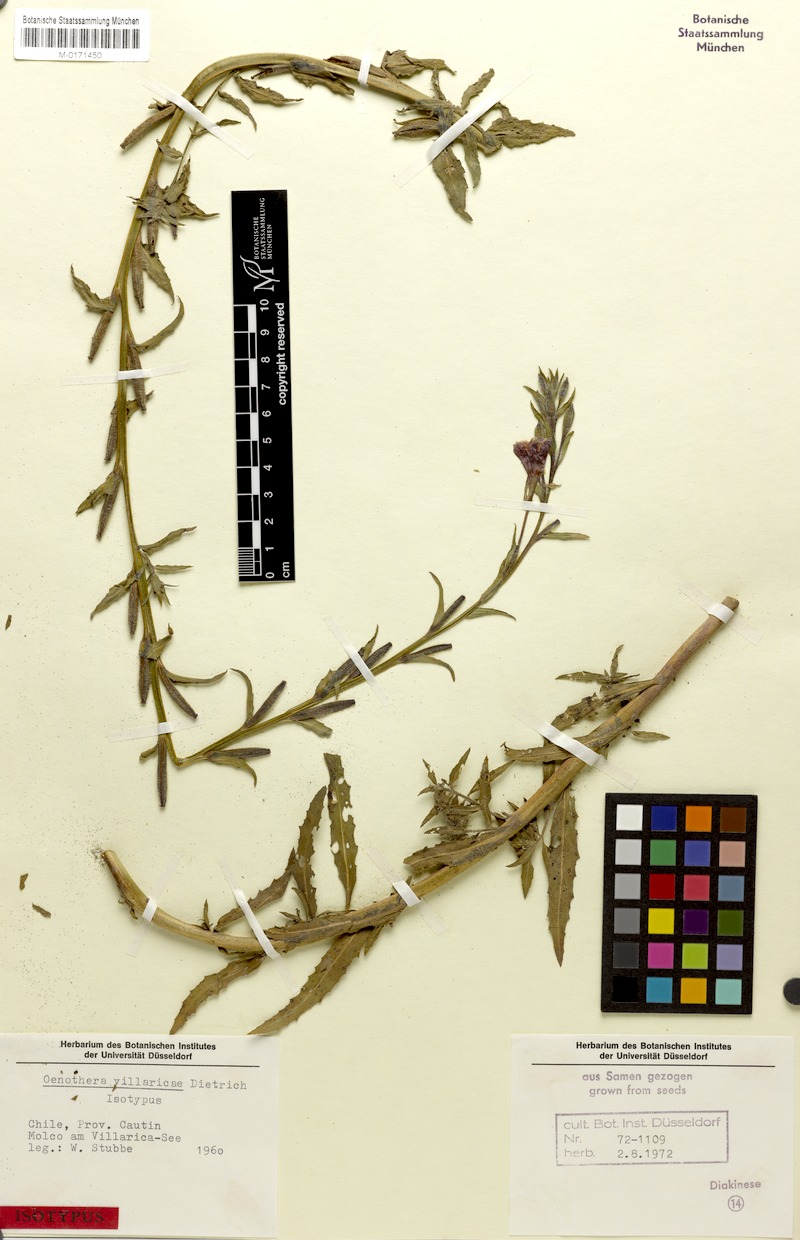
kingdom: Plantae
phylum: Tracheophyta
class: Magnoliopsida
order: Myrtales
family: Onagraceae
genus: Oenothera
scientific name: Oenothera villaricae
